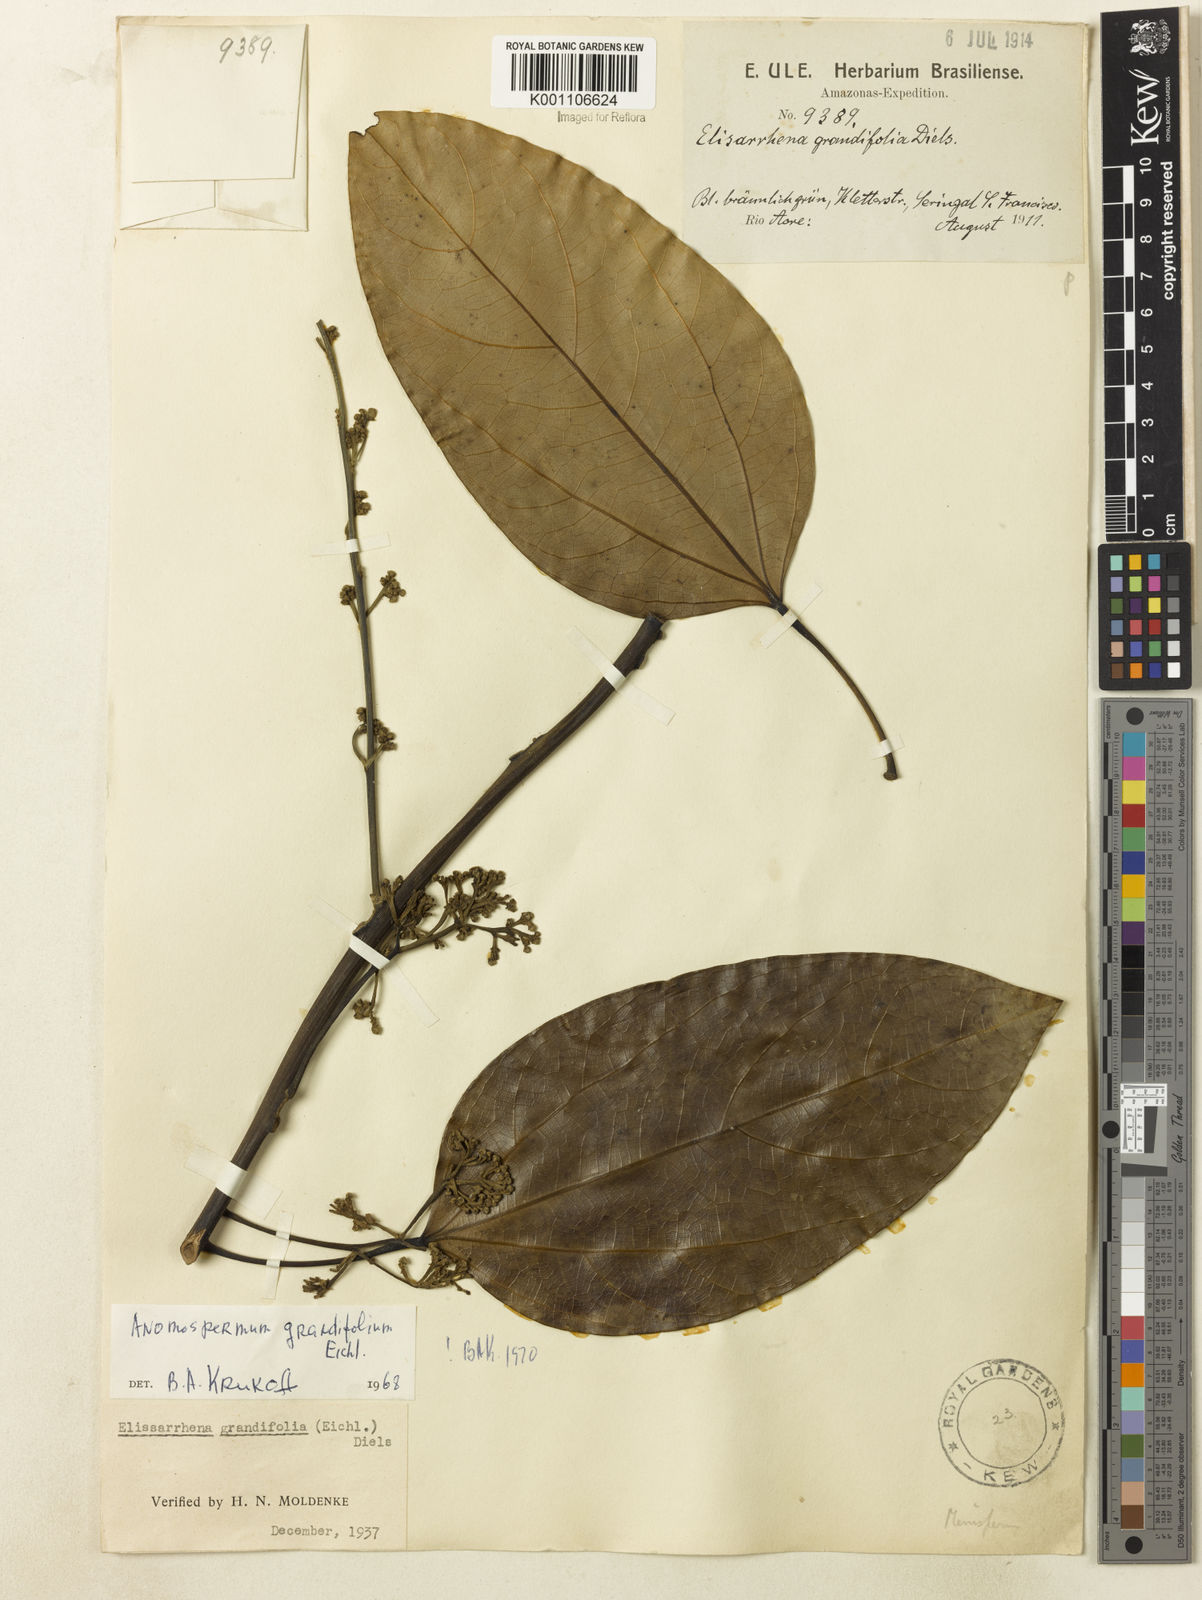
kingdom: Plantae
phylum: Tracheophyta
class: Magnoliopsida
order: Ranunculales
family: Menispermaceae
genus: Elissarrhena
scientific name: Elissarrhena longipes
